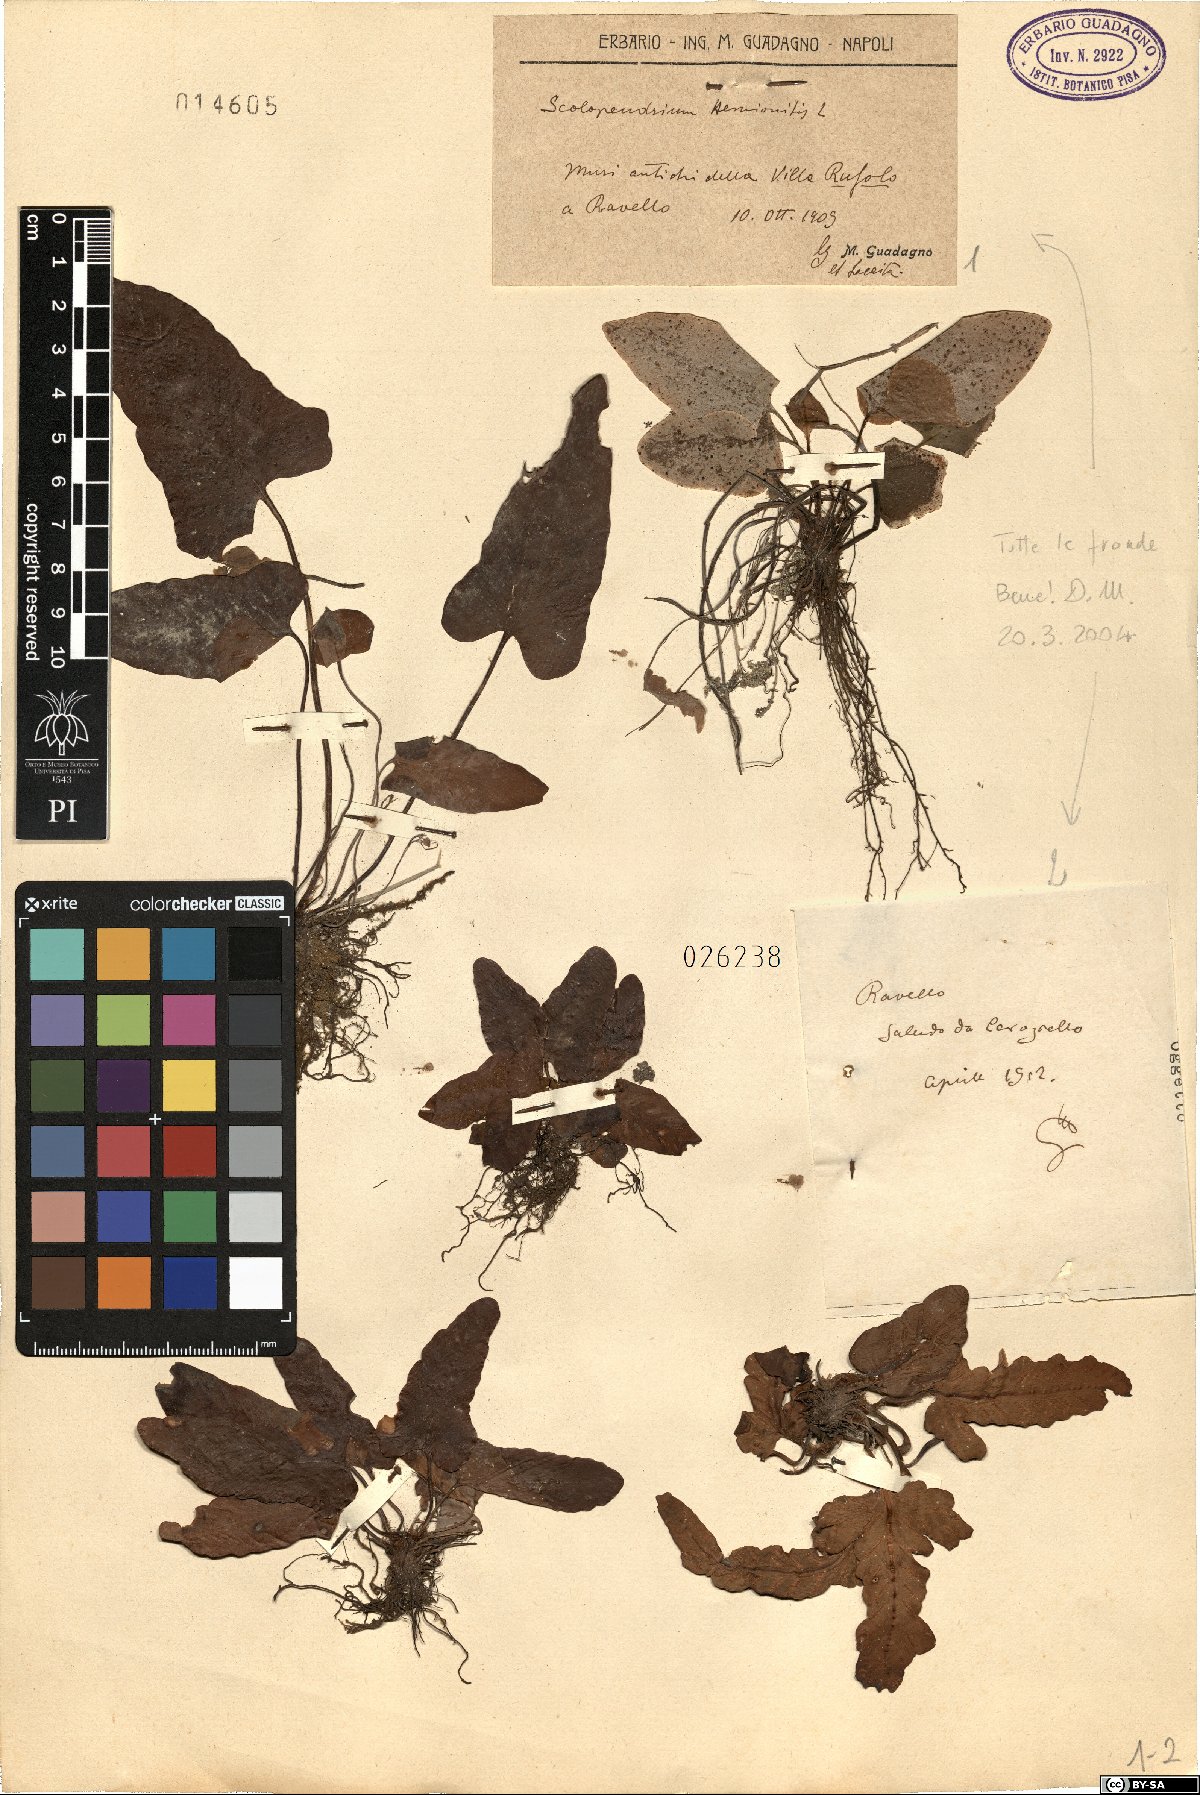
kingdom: Plantae
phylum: Tracheophyta
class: Polypodiopsida
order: Polypodiales
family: Aspleniaceae
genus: Asplenium
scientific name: Asplenium sagittatum
